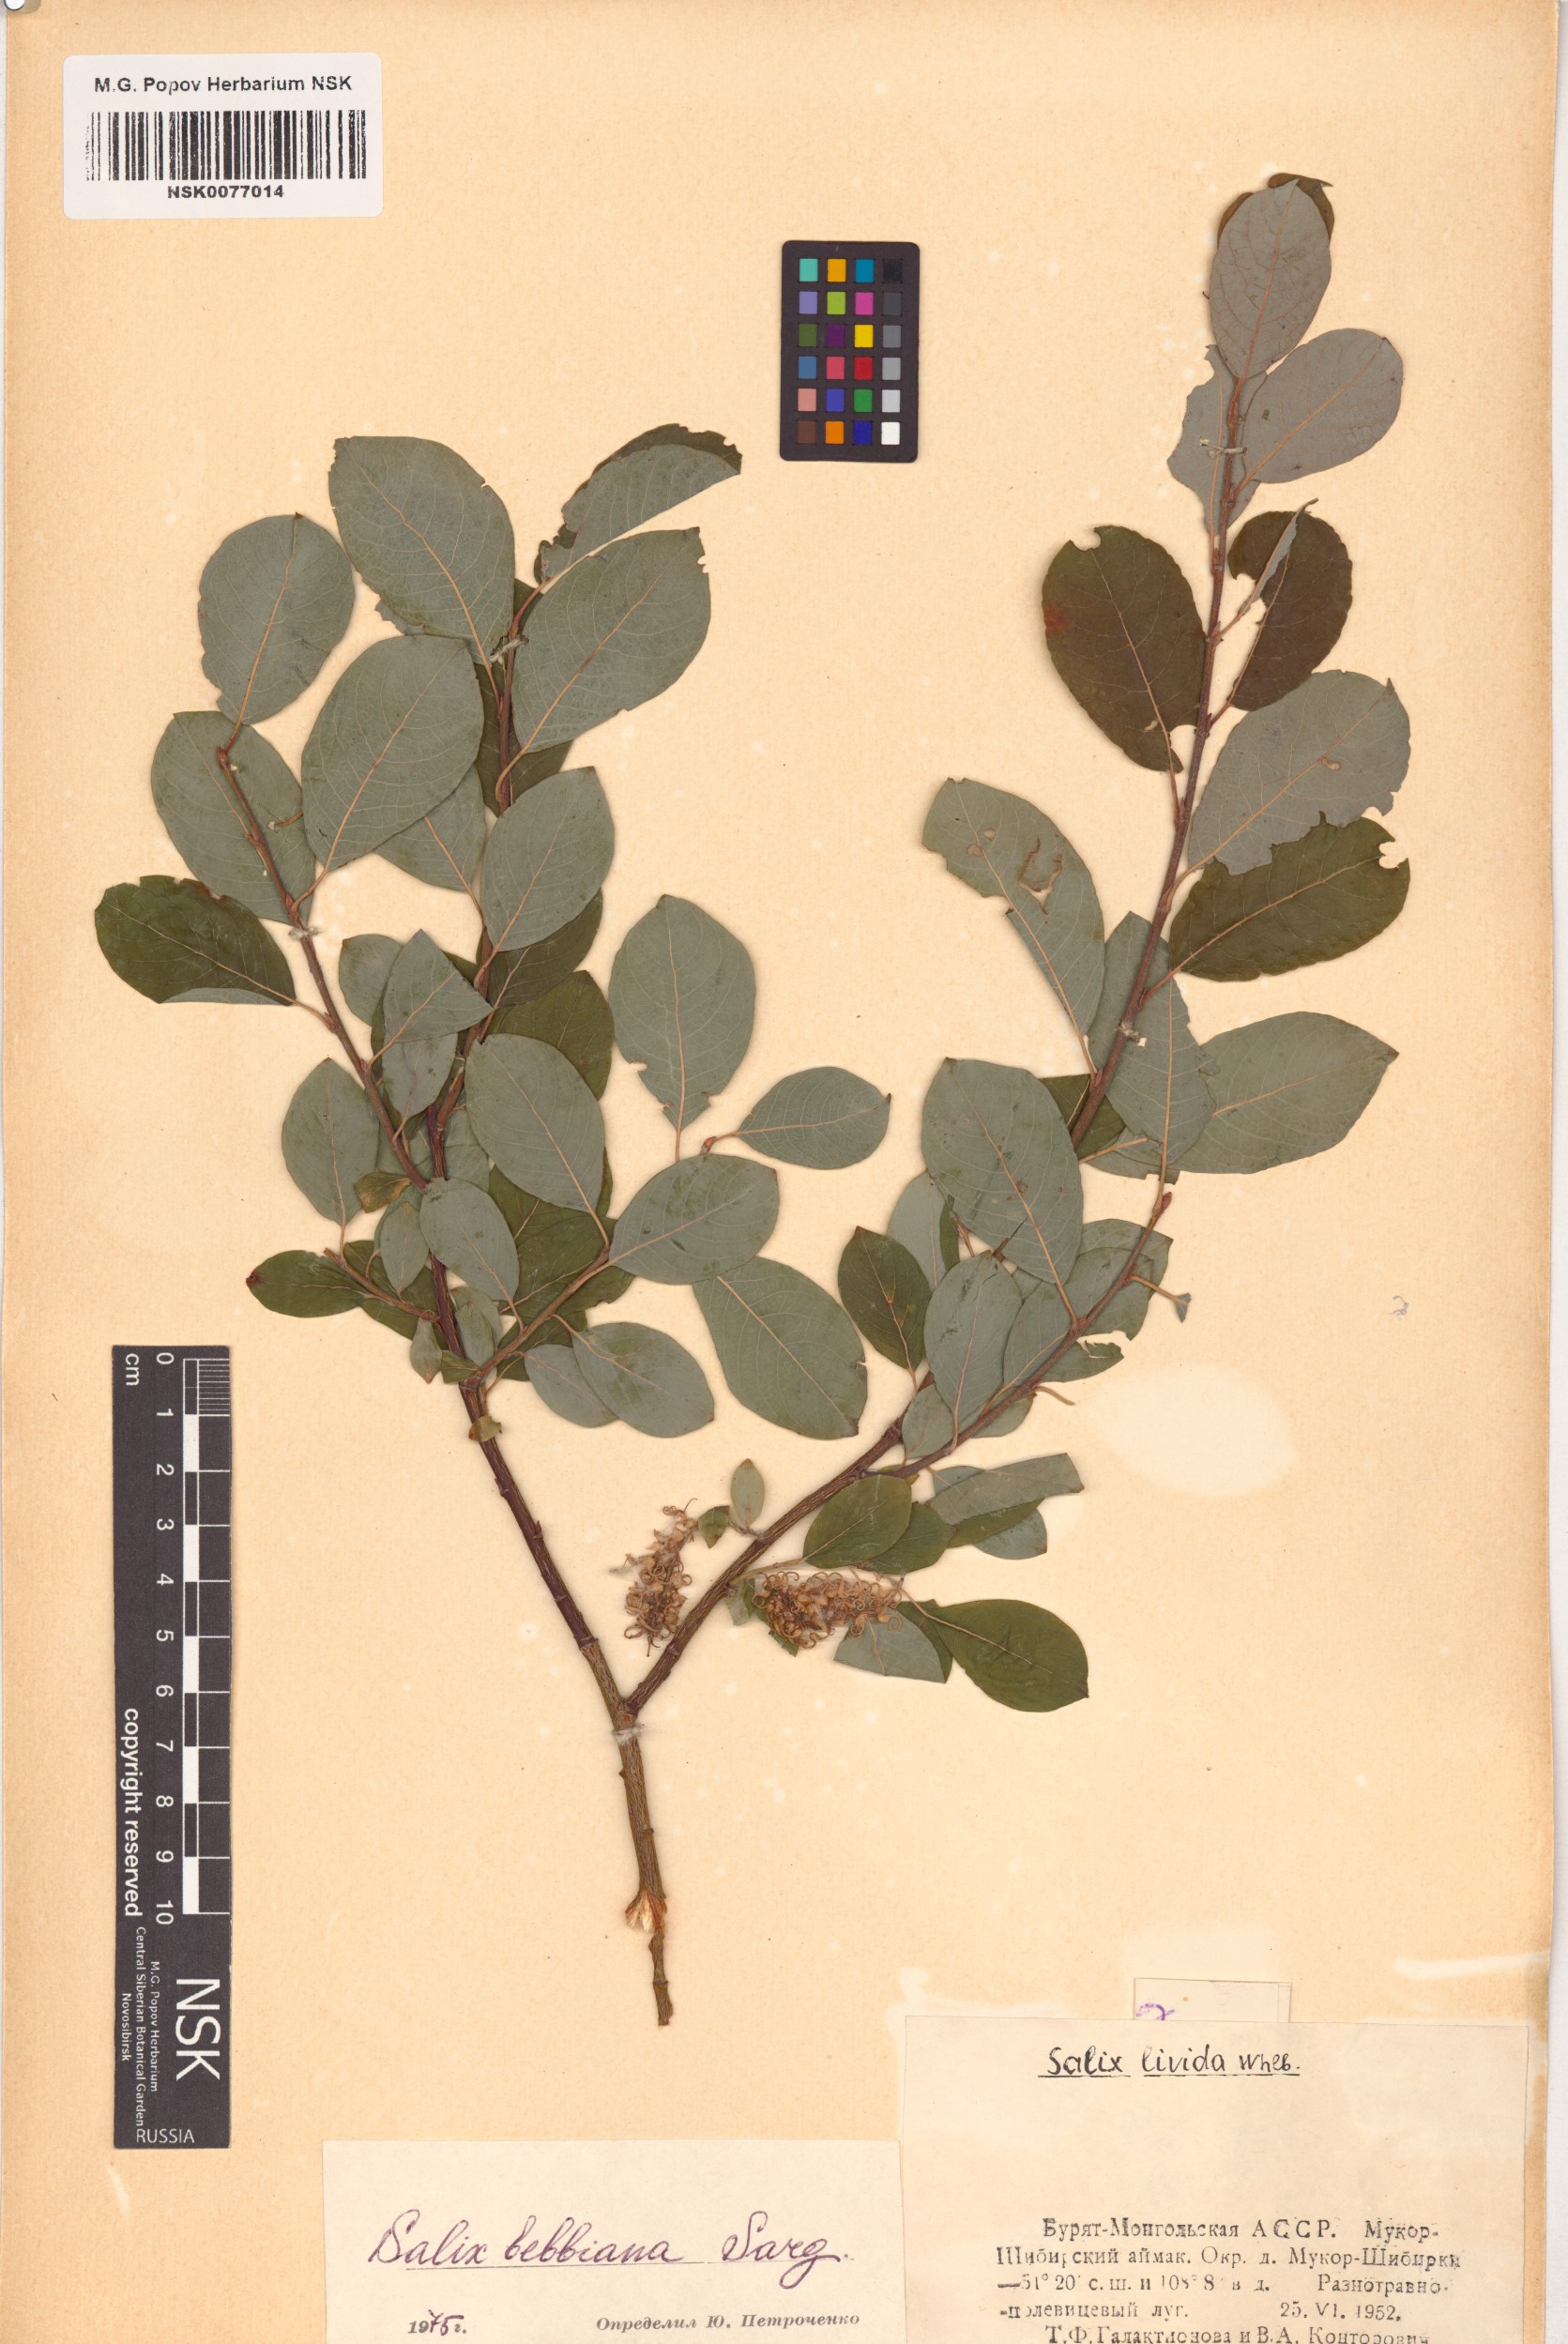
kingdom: Plantae
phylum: Tracheophyta
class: Magnoliopsida
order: Malpighiales
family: Salicaceae
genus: Salix
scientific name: Salix bebbiana
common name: Bebb's willow
